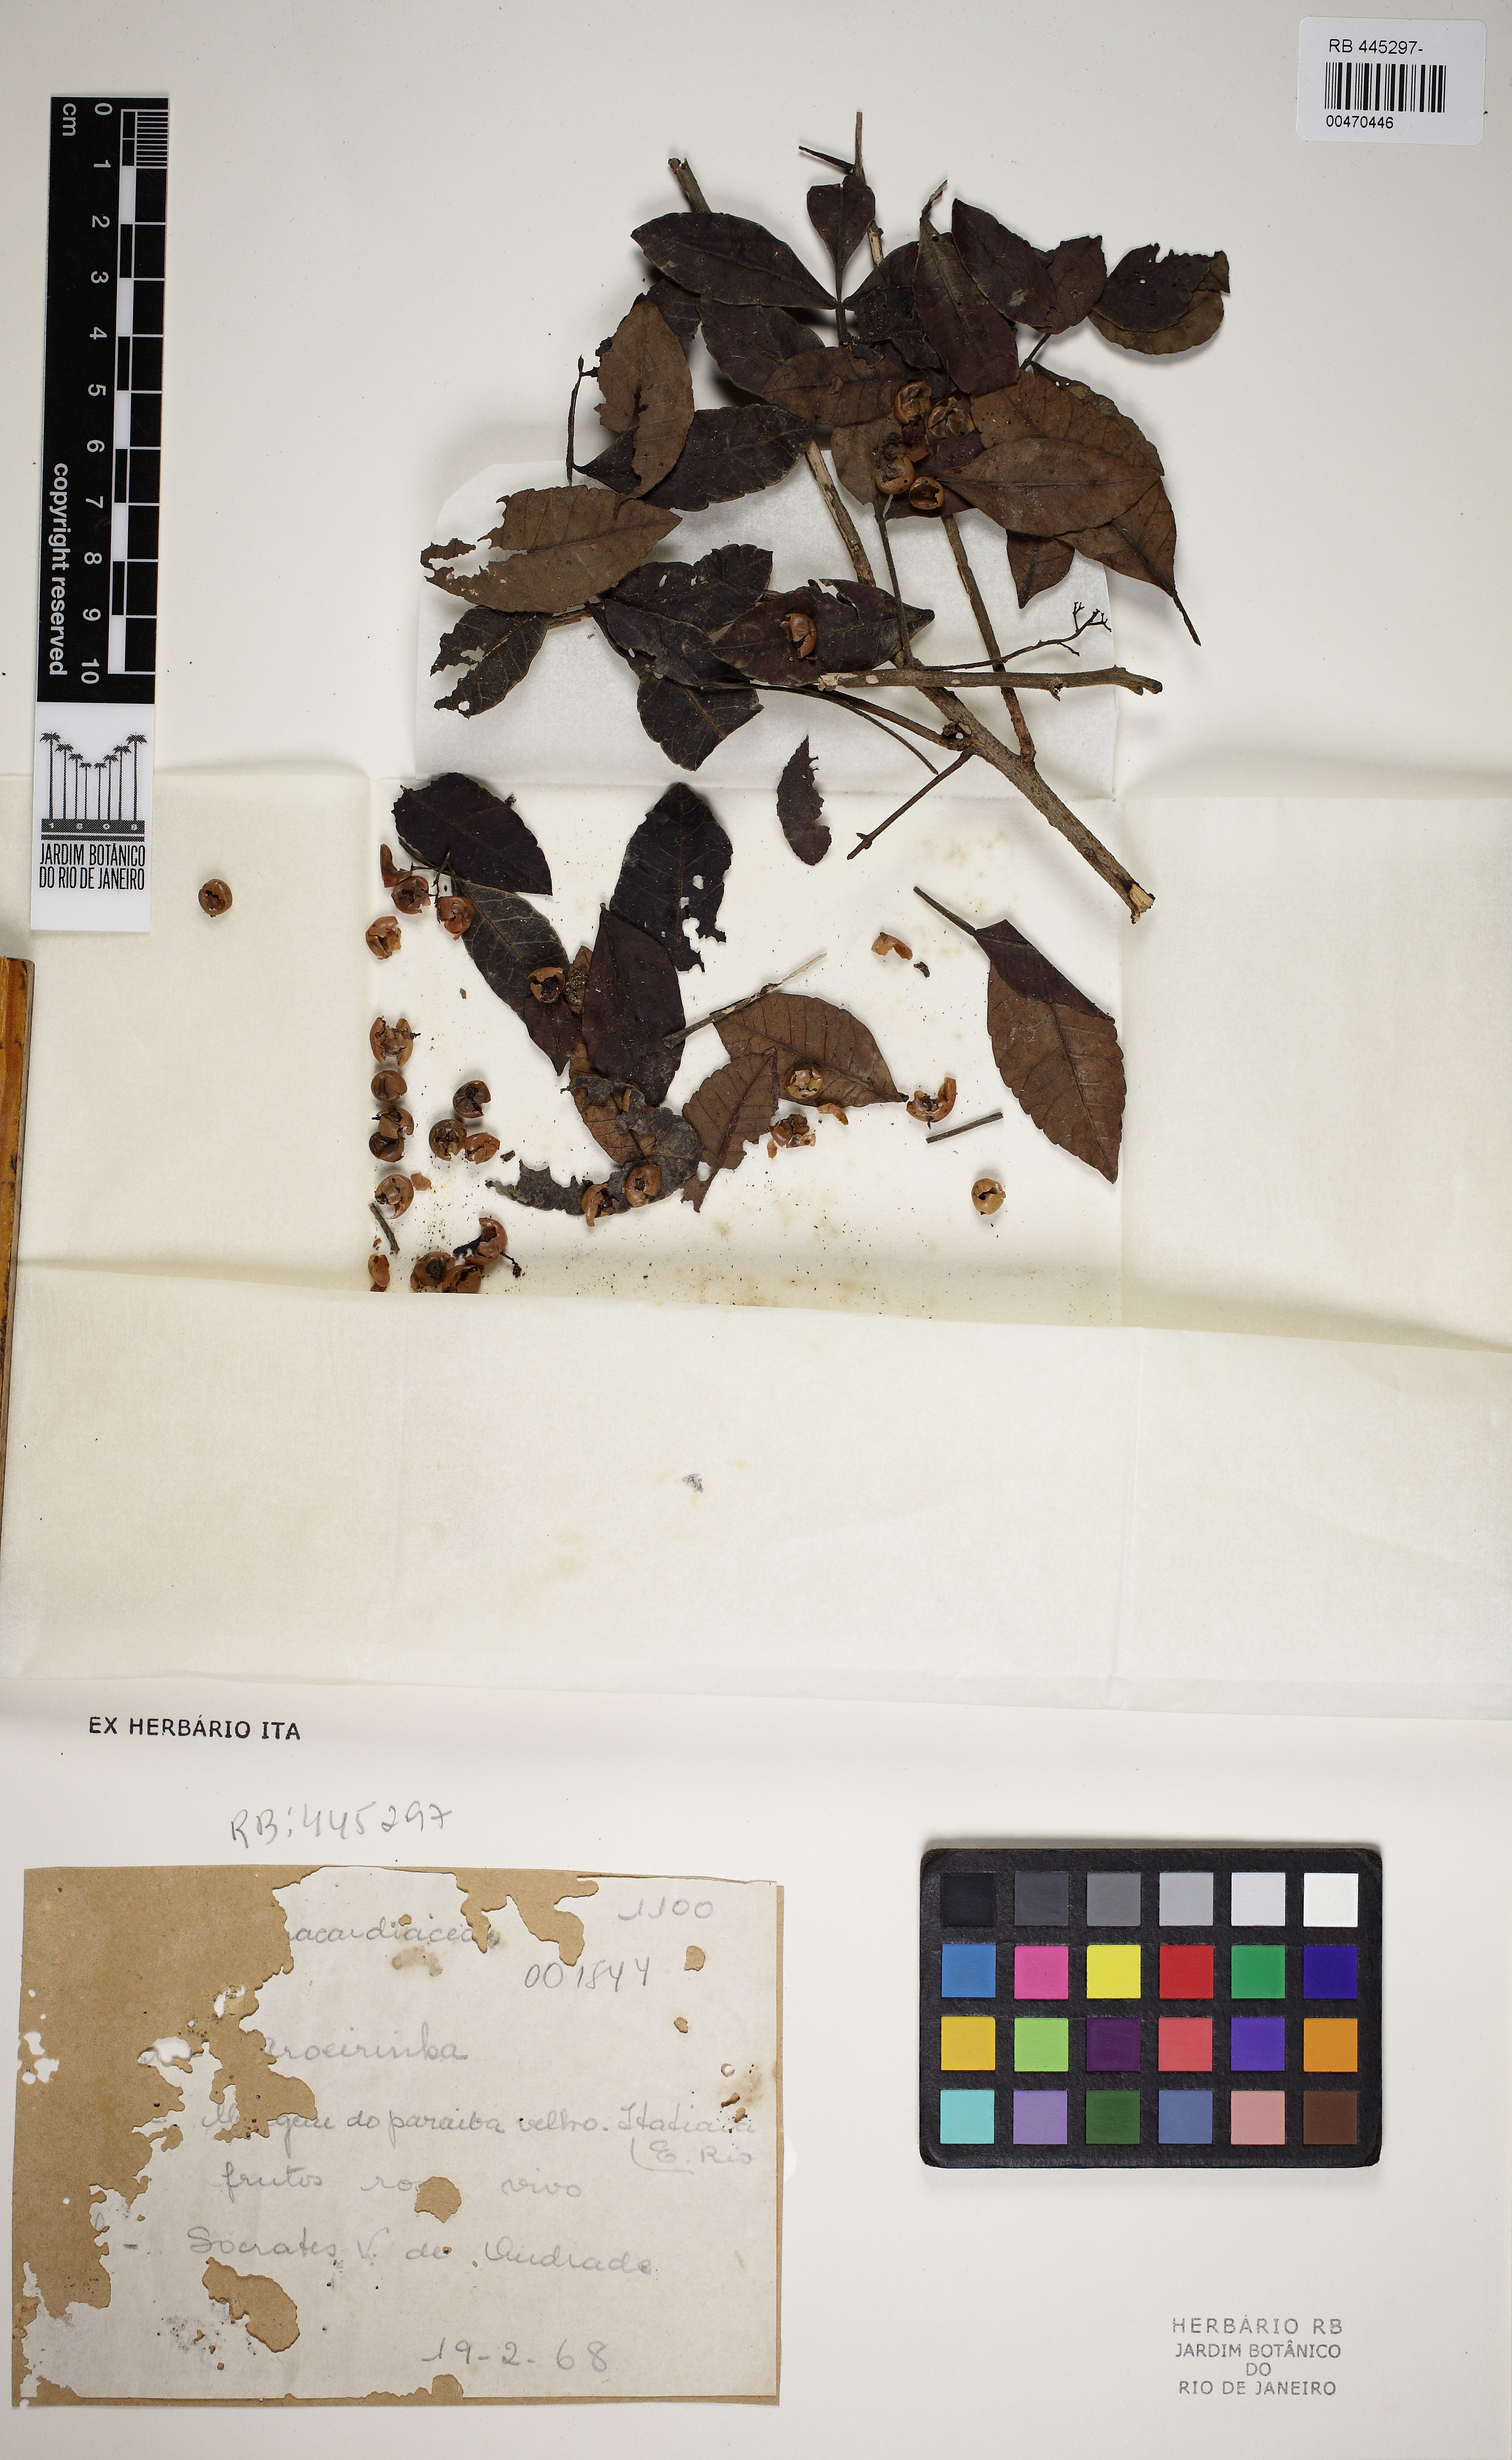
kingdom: Plantae
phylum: Tracheophyta
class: Magnoliopsida
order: Sapindales
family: Anacardiaceae
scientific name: Anacardiaceae
